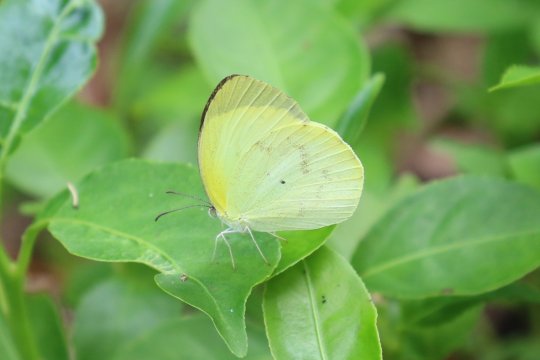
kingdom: Animalia
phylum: Arthropoda
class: Insecta
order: Lepidoptera
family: Pieridae
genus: Pyrisitia
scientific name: Pyrisitia venusta
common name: Pale Yellow
